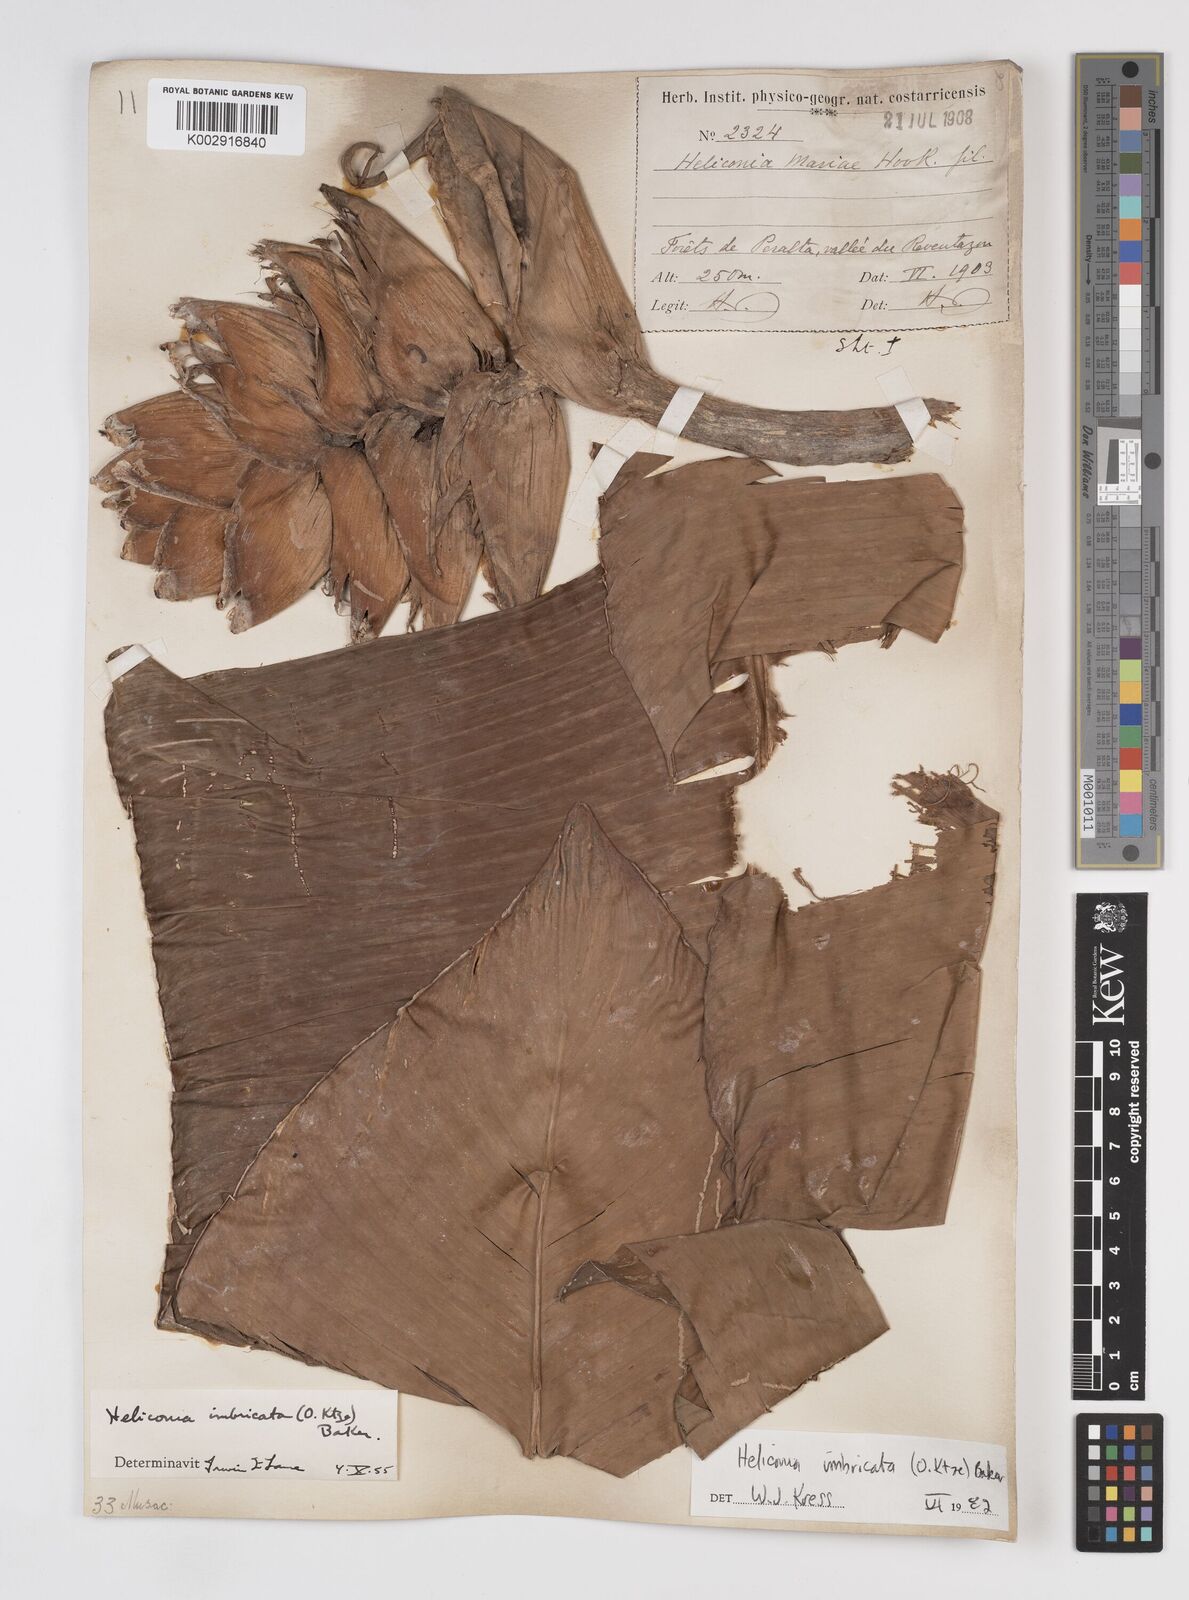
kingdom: Plantae
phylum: Tracheophyta
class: Liliopsida
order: Zingiberales
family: Heliconiaceae
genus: Heliconia
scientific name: Heliconia imbricata
